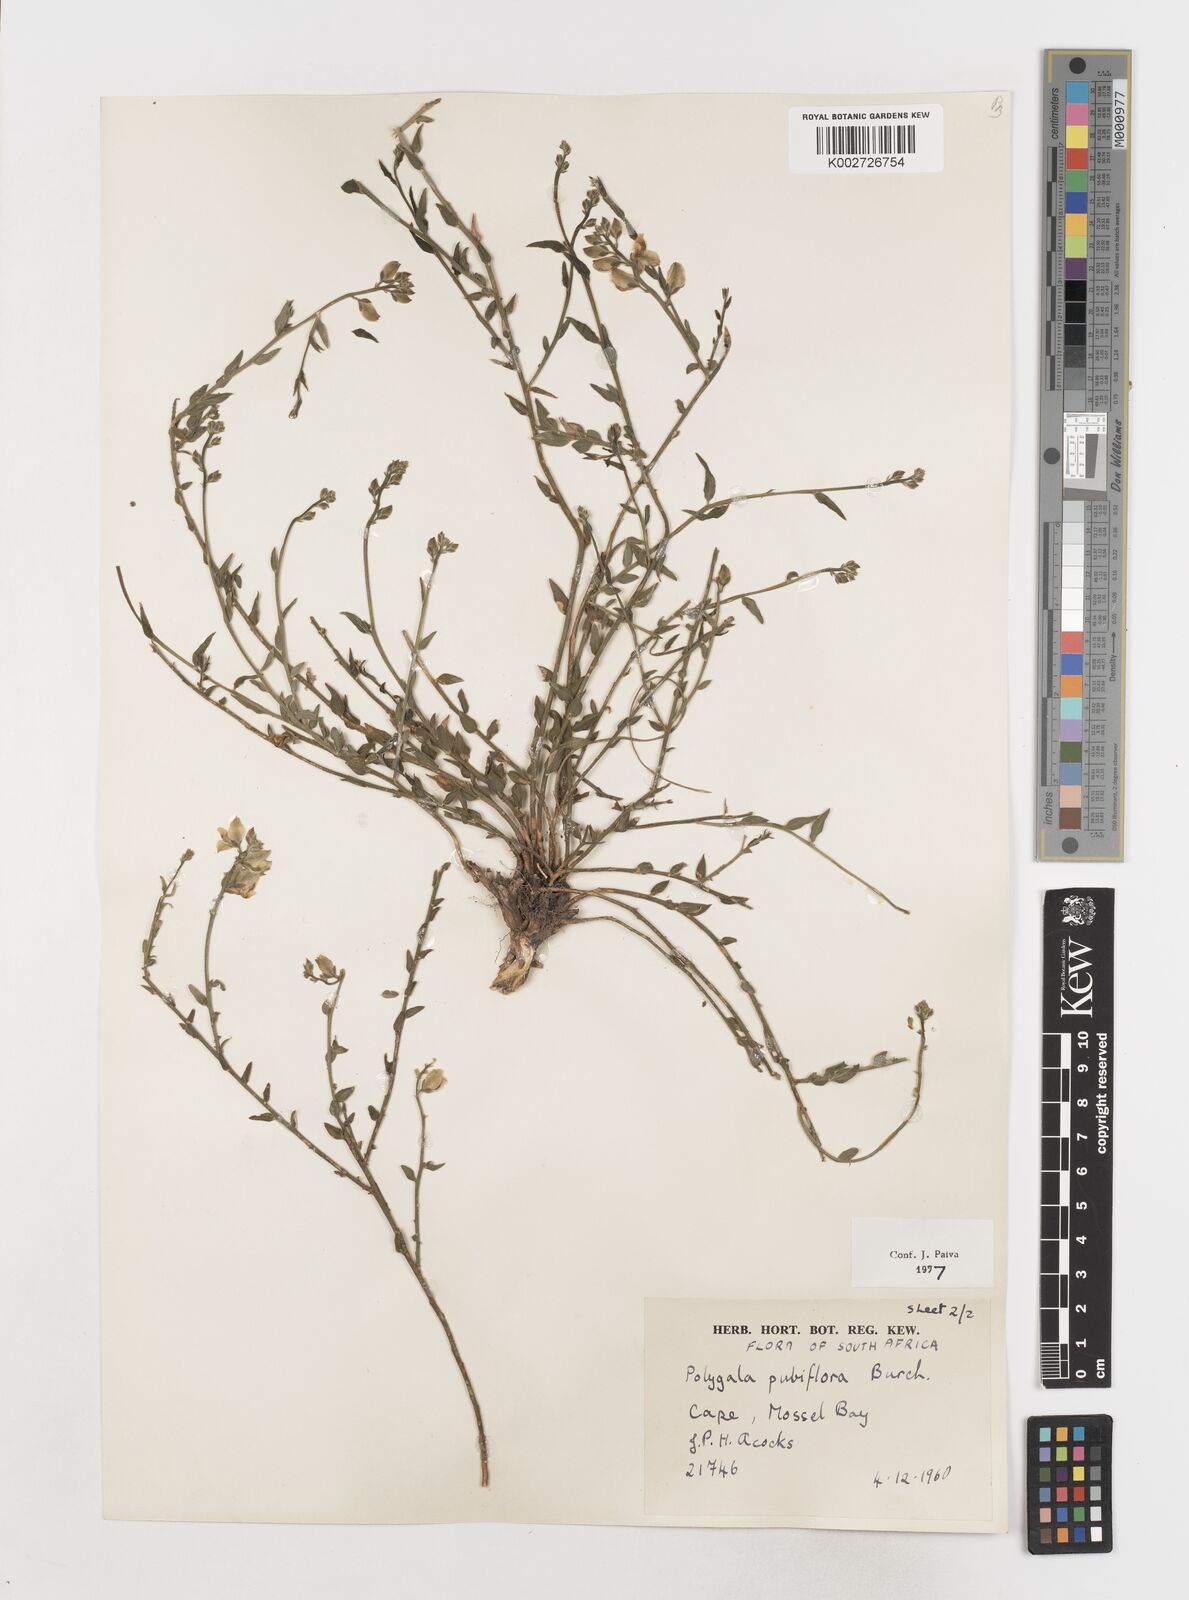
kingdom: Plantae
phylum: Tracheophyta
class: Magnoliopsida
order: Fabales
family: Polygalaceae
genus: Polygala
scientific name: Polygala pubiflora
